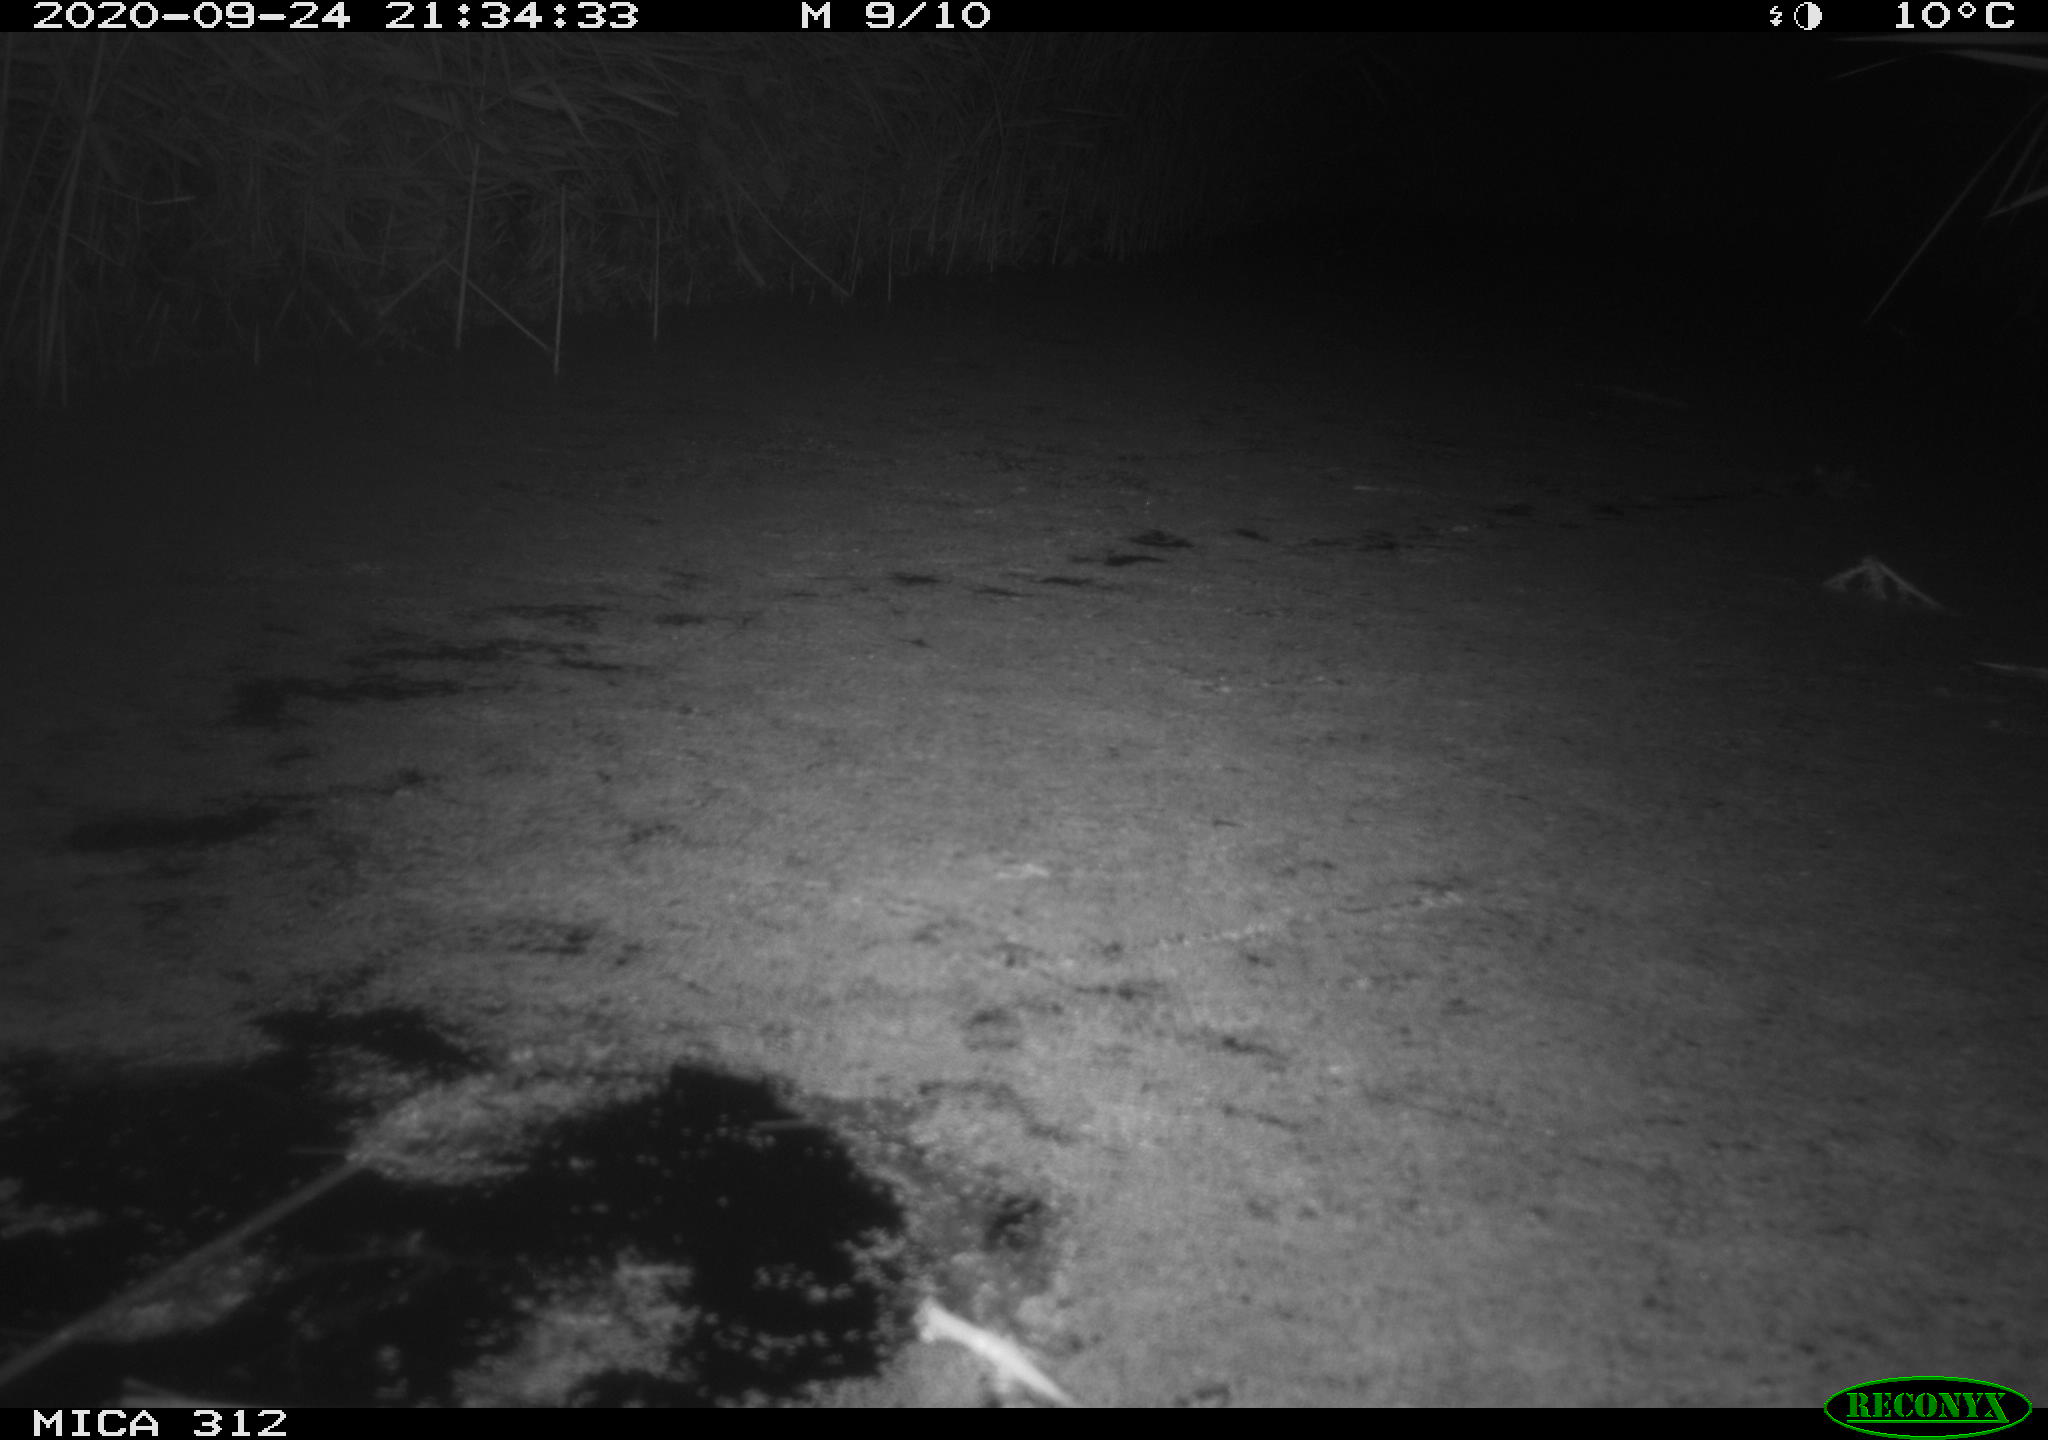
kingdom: Animalia
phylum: Chordata
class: Mammalia
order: Rodentia
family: Muridae
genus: Rattus
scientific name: Rattus norvegicus
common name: Brown rat
